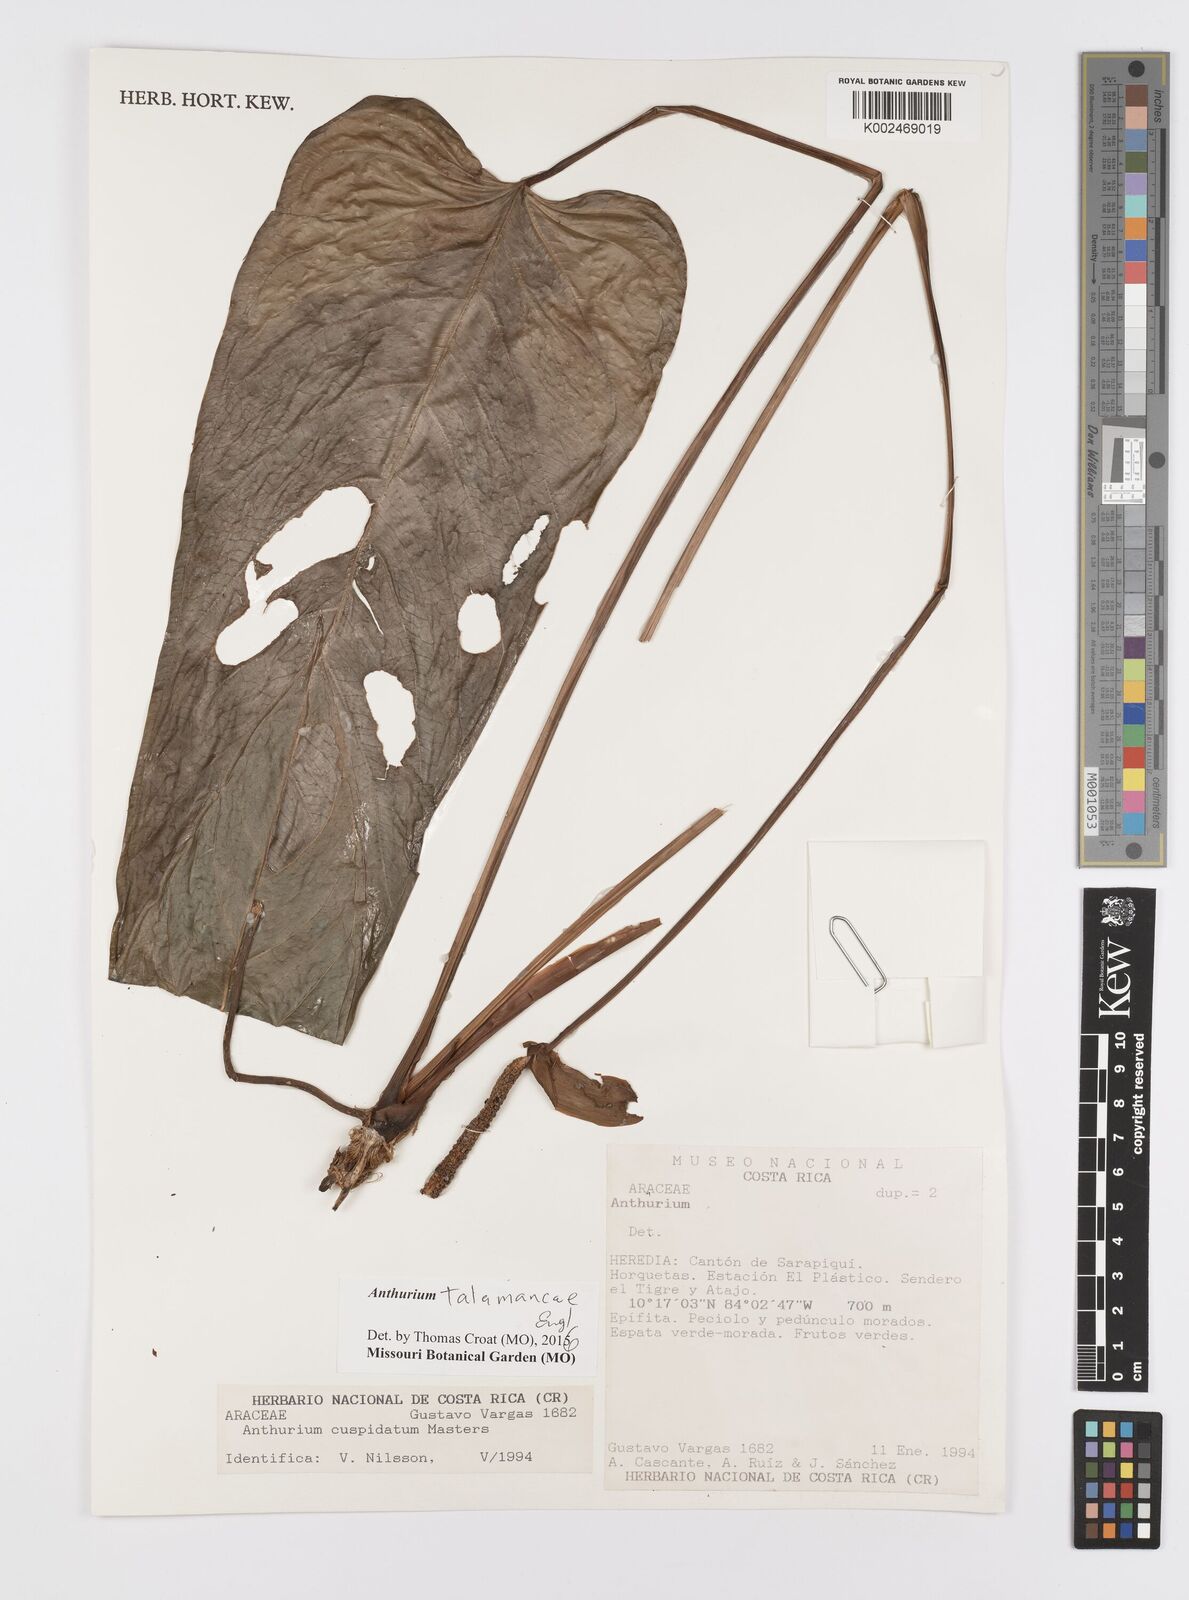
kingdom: Plantae
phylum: Tracheophyta
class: Liliopsida
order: Alismatales
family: Araceae
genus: Anthurium
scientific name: Anthurium talamancae
